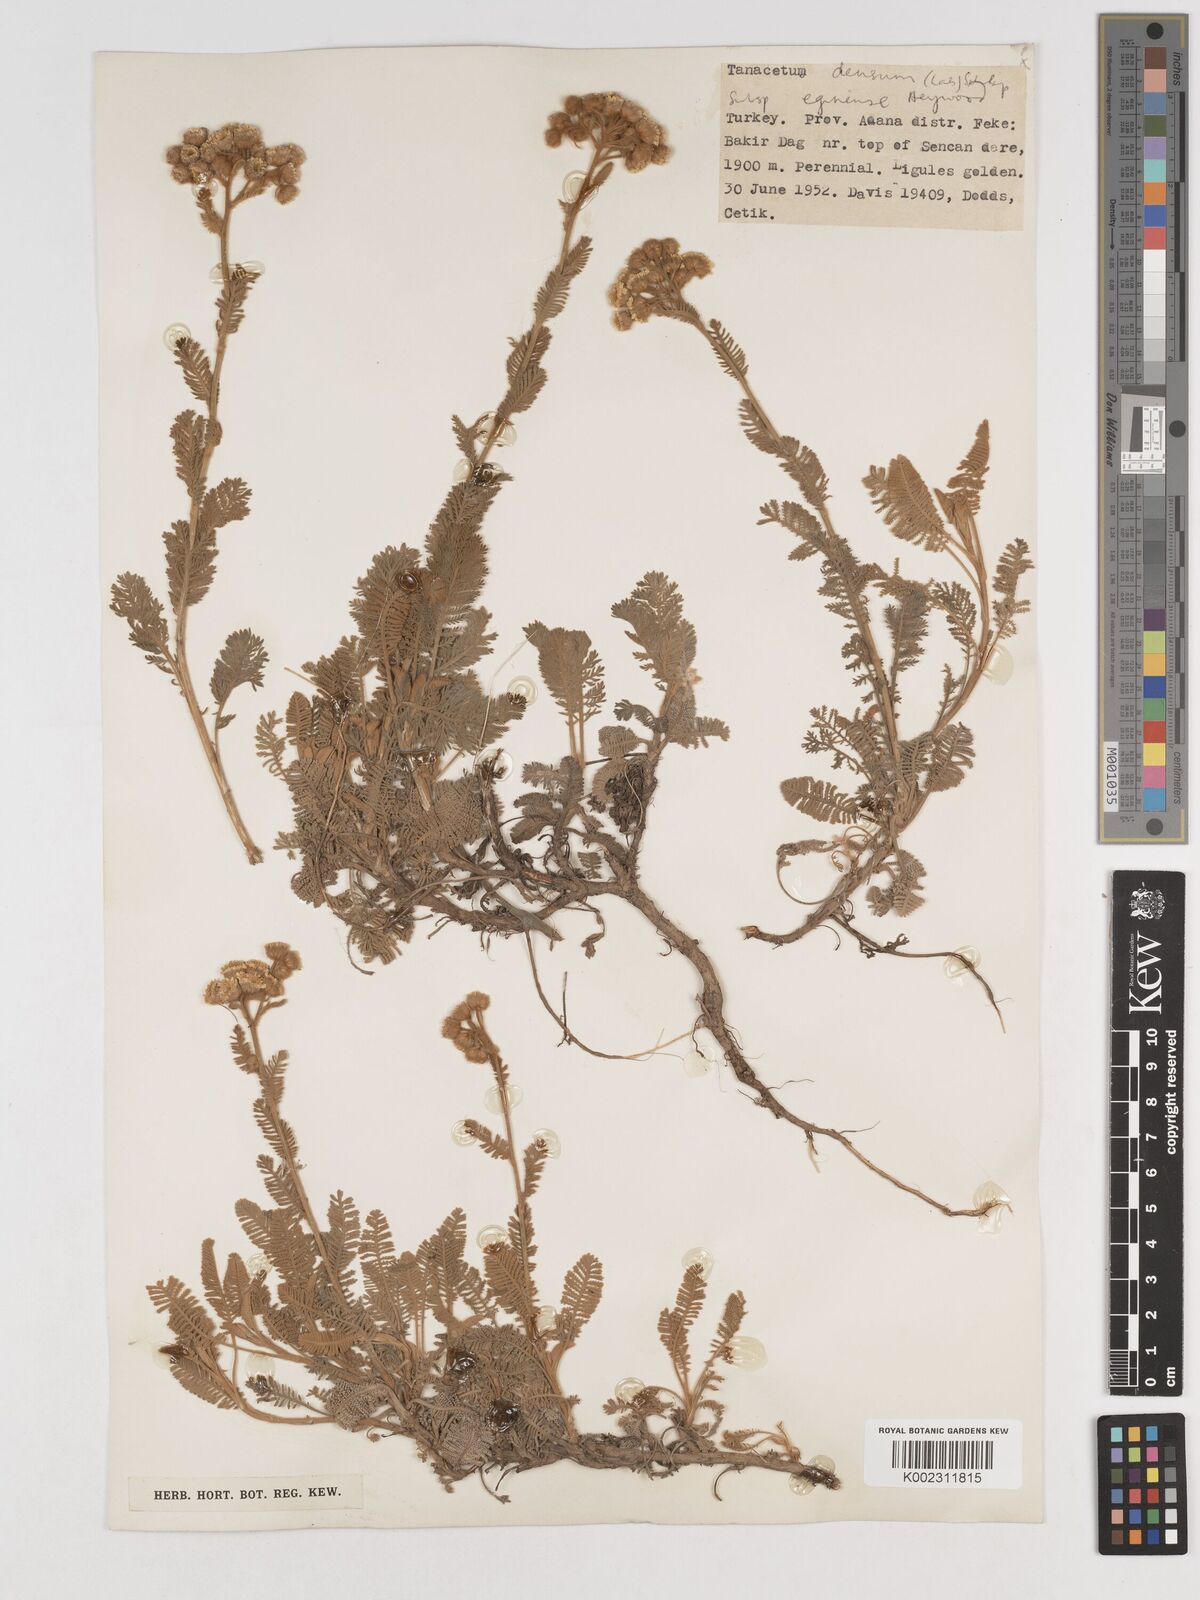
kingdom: Plantae
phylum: Tracheophyta
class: Magnoliopsida
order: Asterales
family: Asteraceae
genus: Tanacetum
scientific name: Tanacetum densum
